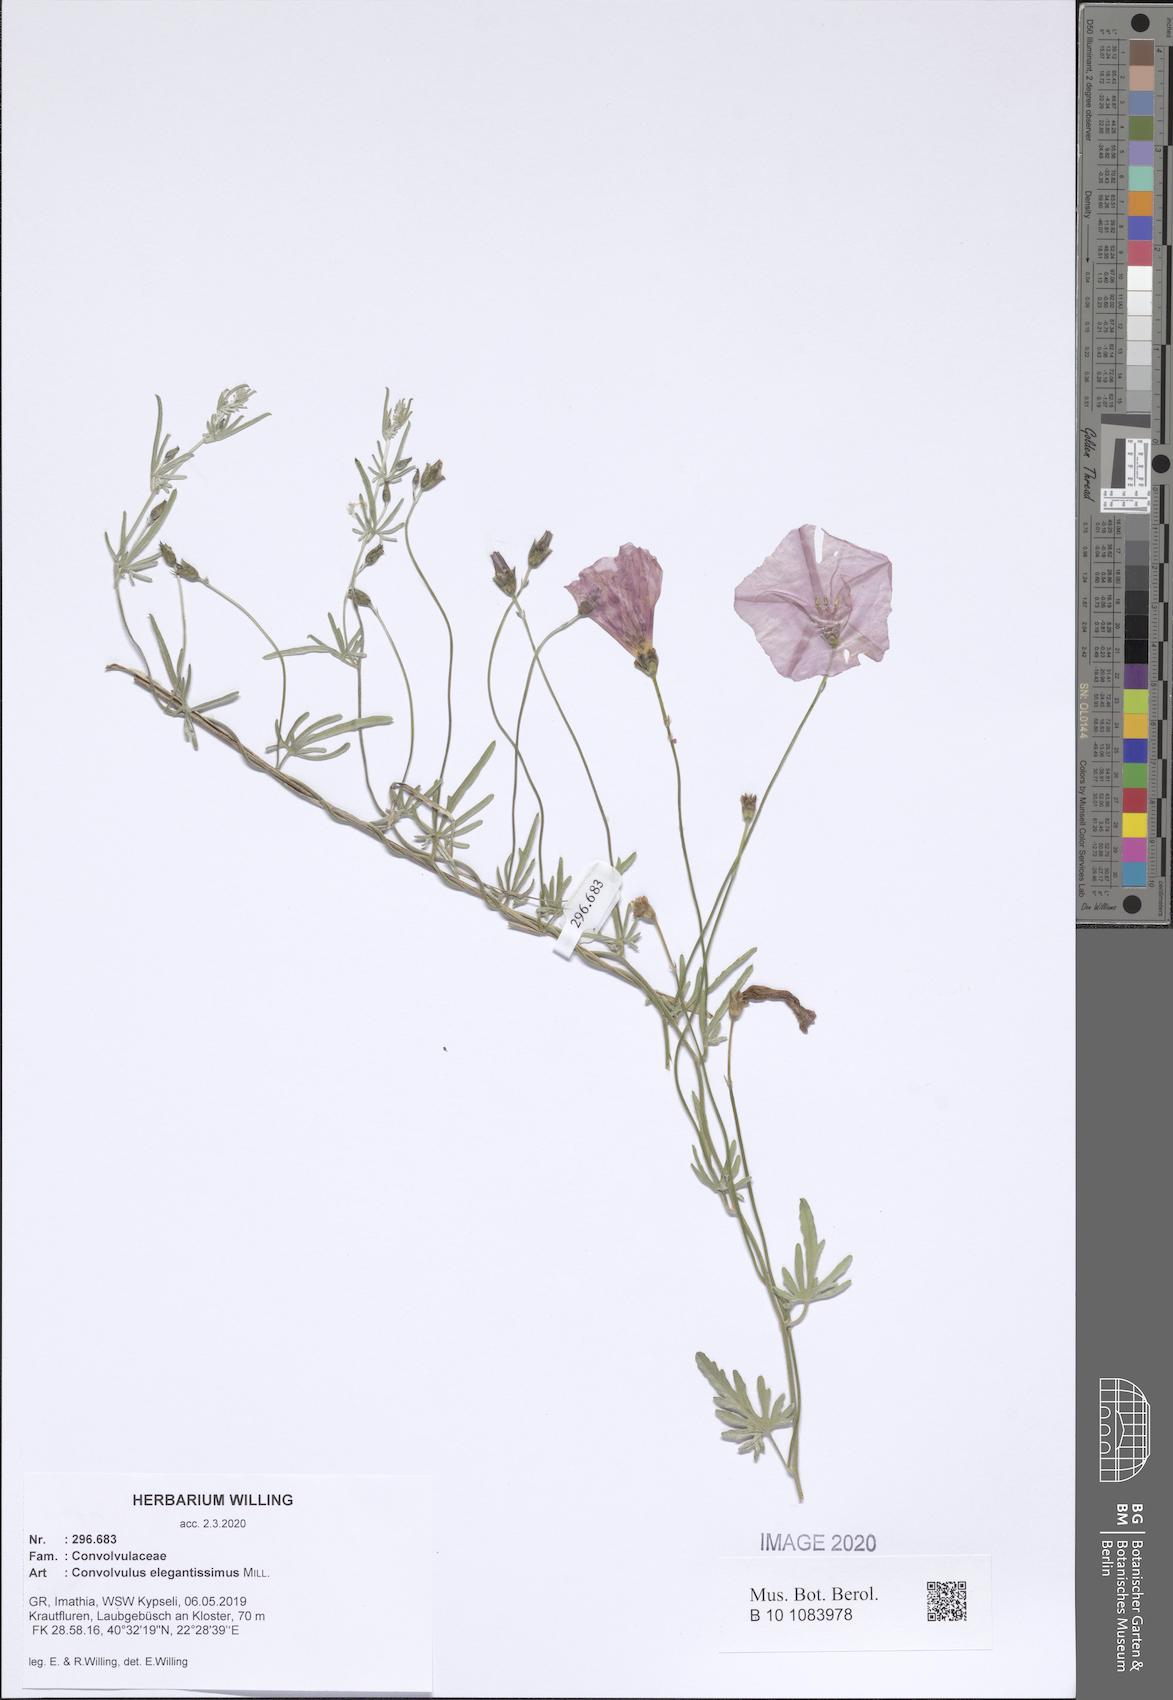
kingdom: Plantae
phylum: Tracheophyta
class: Magnoliopsida
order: Solanales
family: Convolvulaceae
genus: Convolvulus
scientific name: Convolvulus elegantissimus
